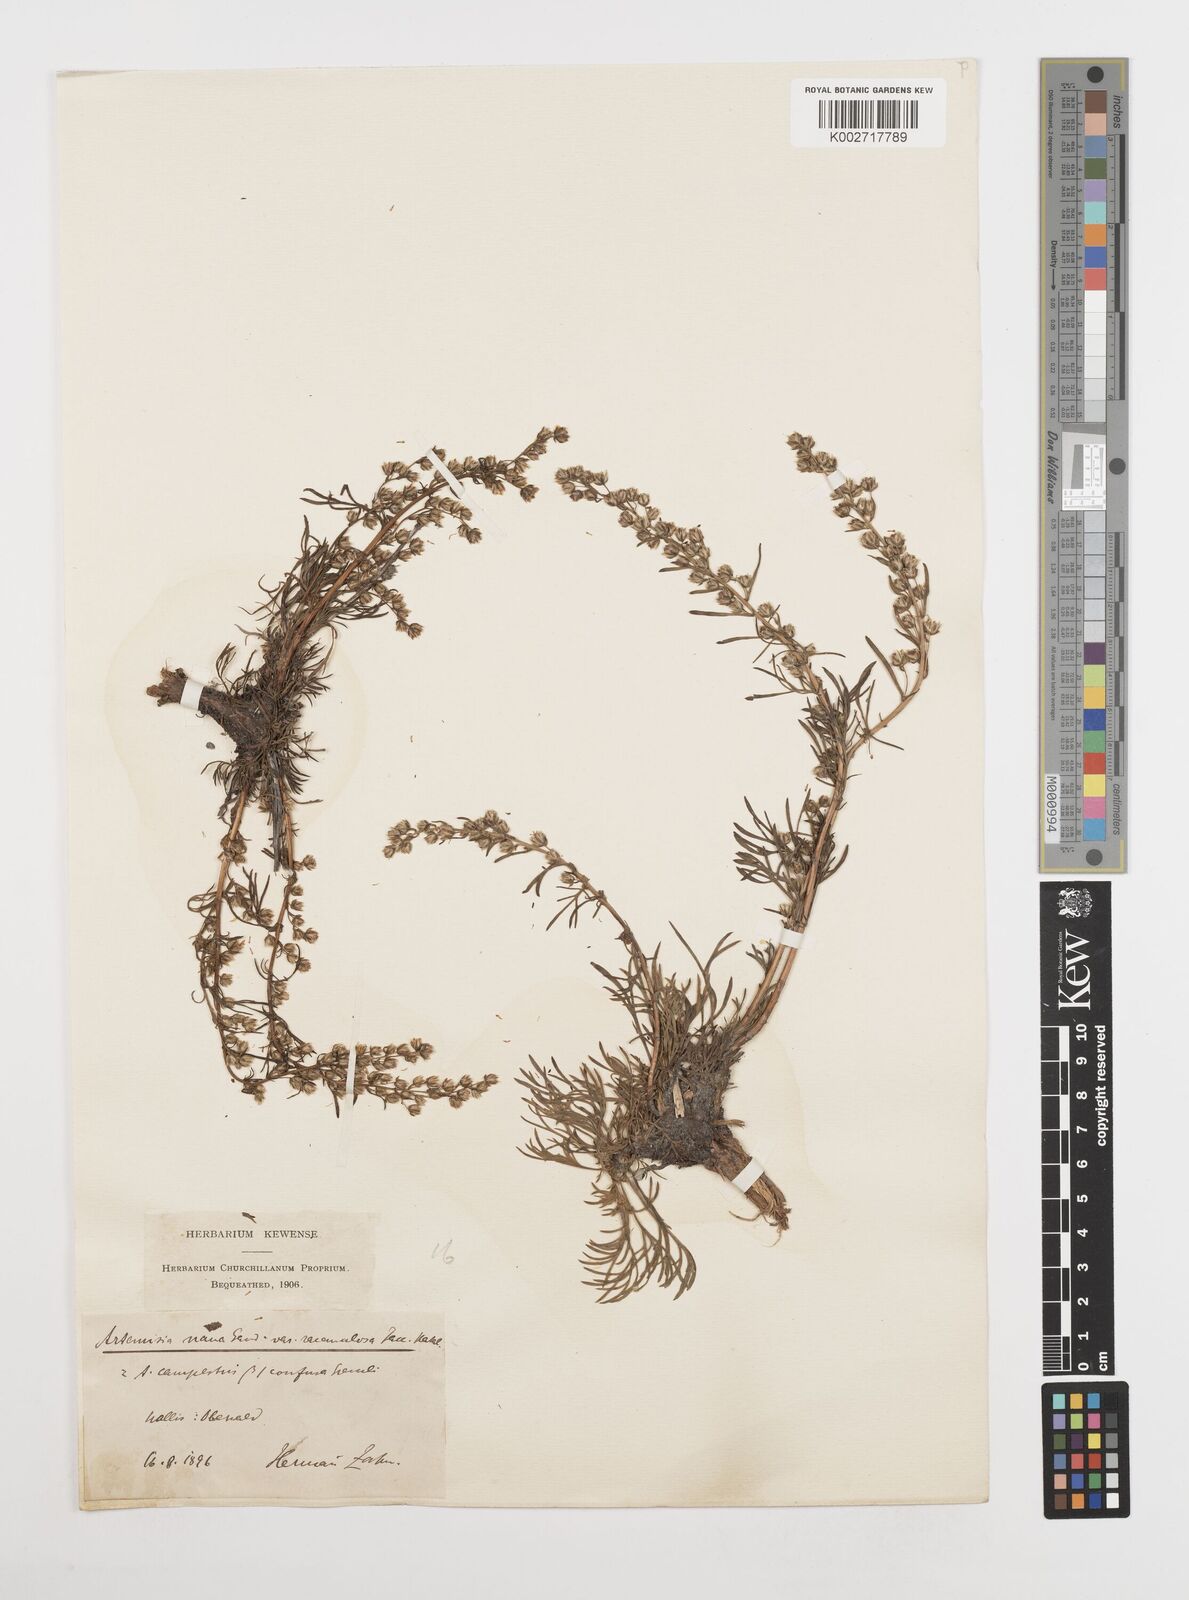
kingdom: Plantae
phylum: Tracheophyta
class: Magnoliopsida
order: Asterales
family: Asteraceae
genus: Artemisia
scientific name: Artemisia campestris
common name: Field wormwood
